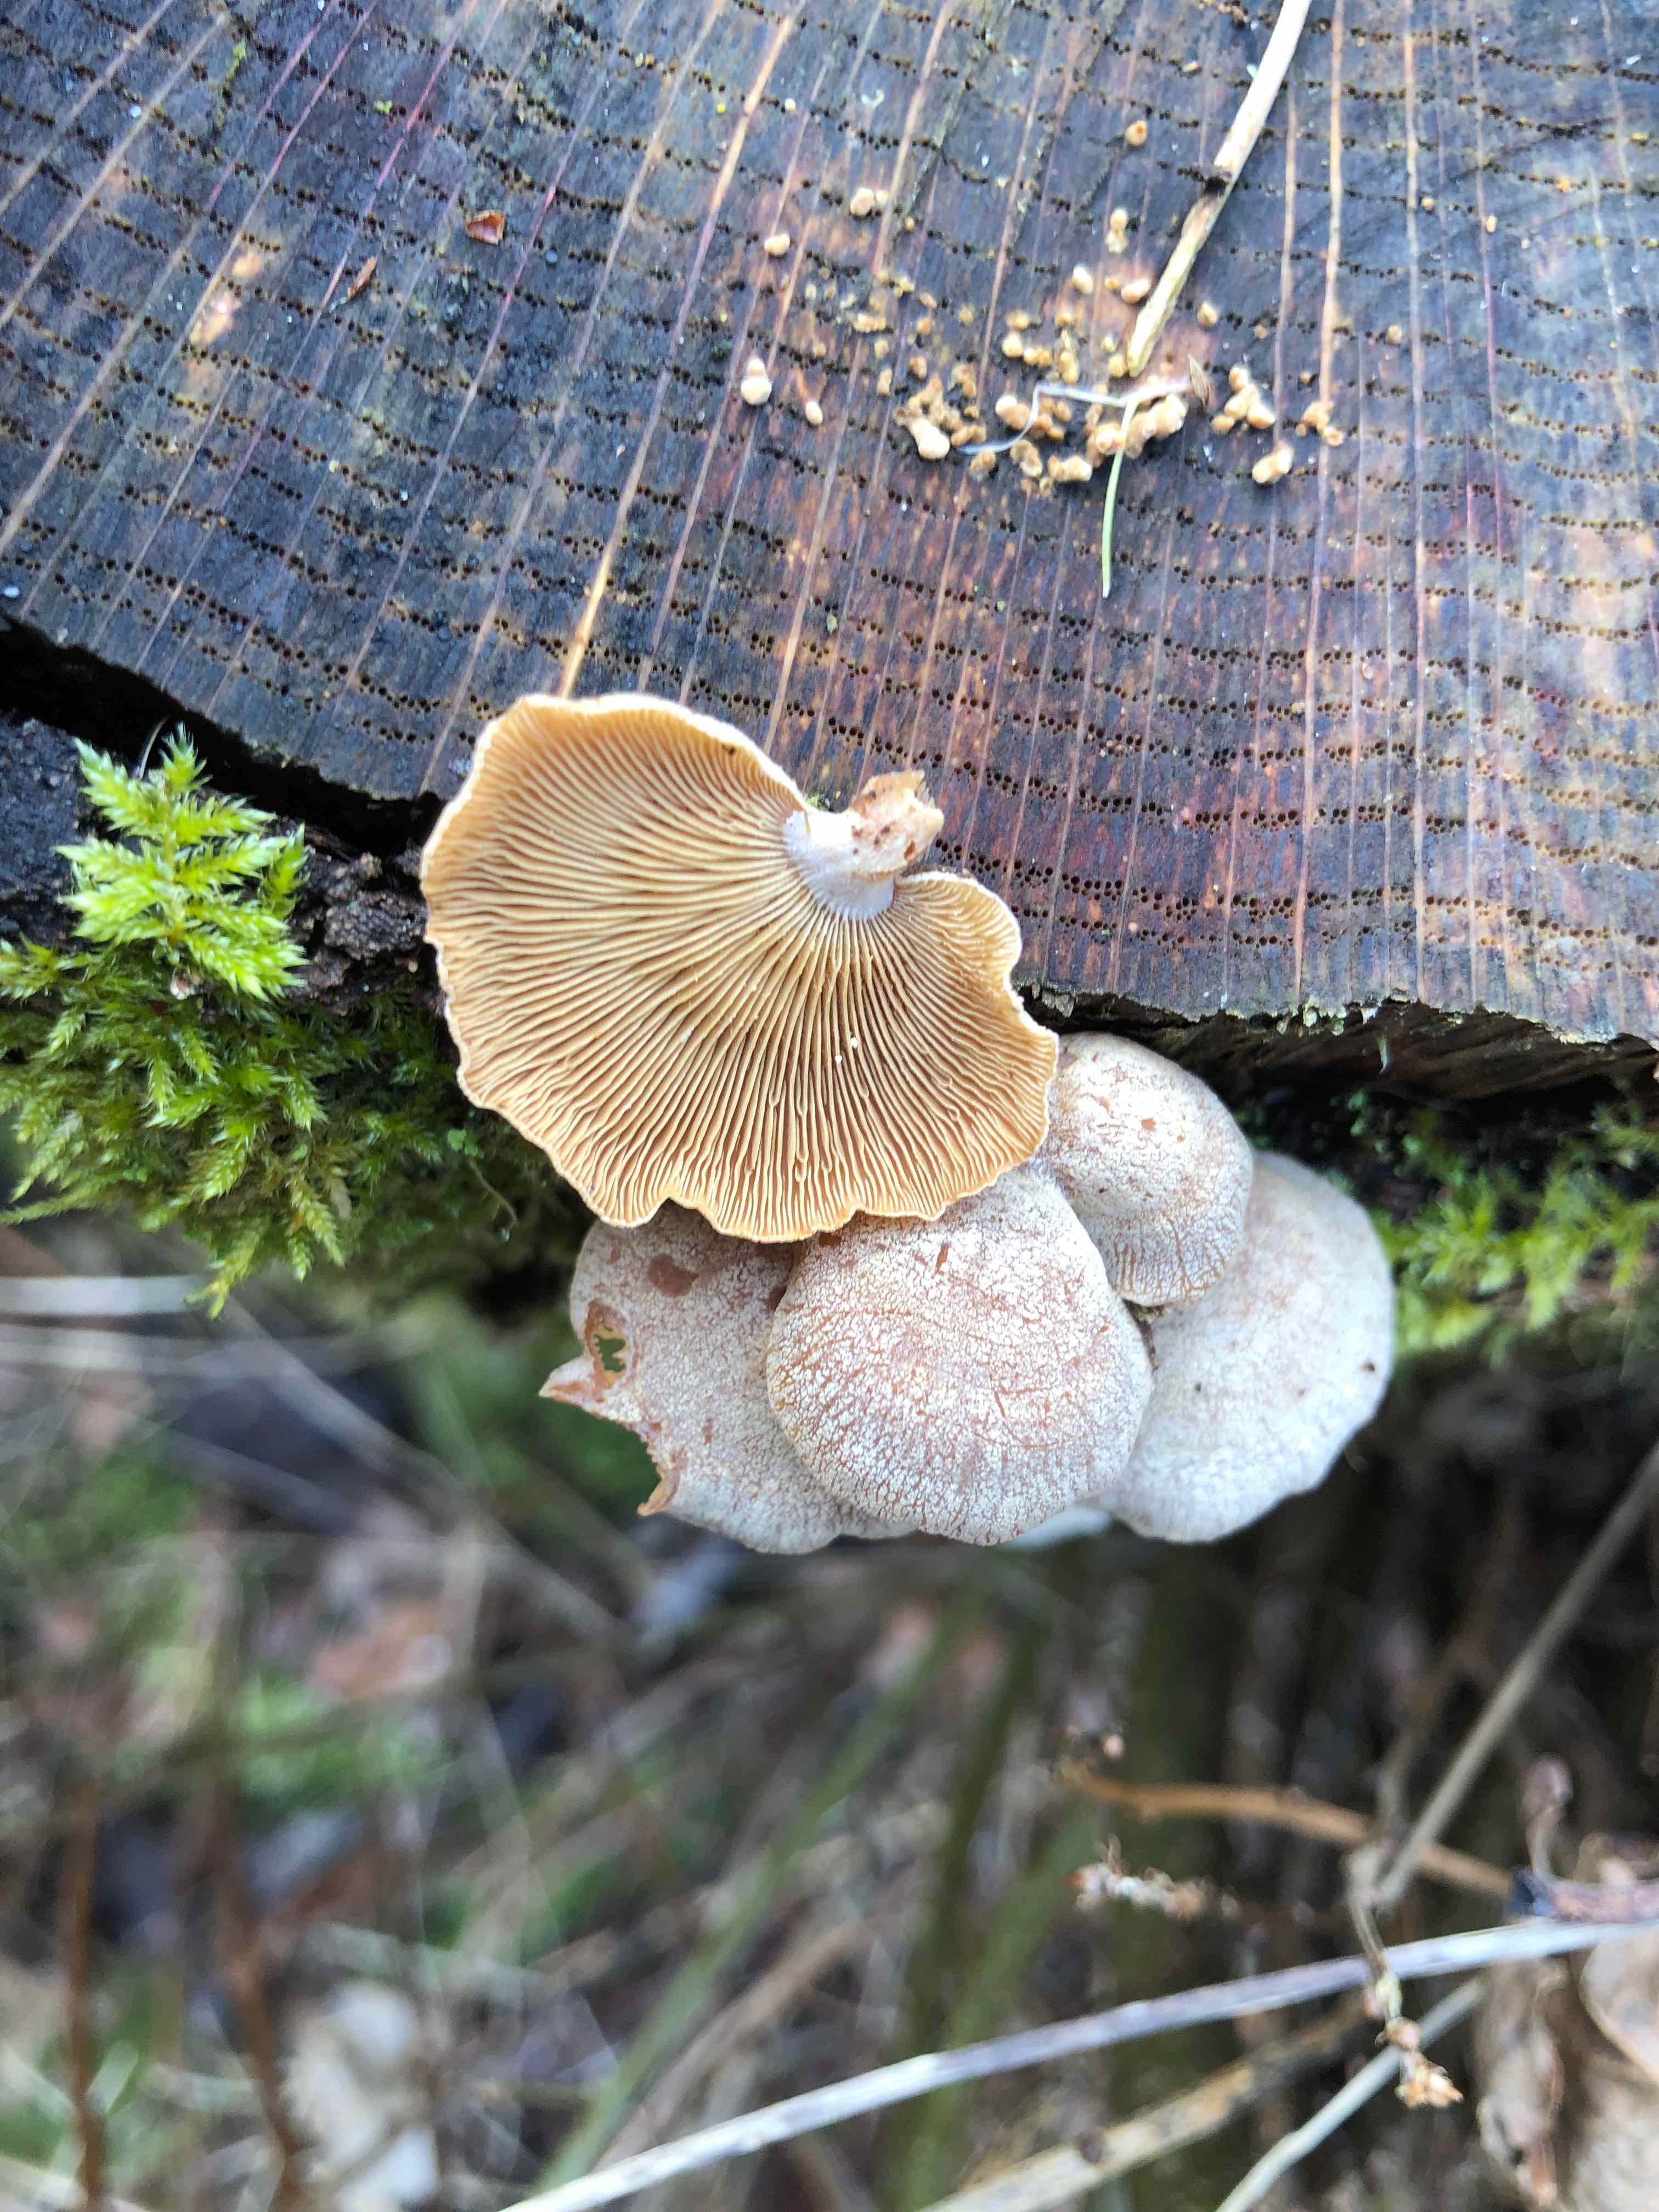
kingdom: Fungi
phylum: Basidiomycota
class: Agaricomycetes
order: Agaricales
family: Mycenaceae
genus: Panellus
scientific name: Panellus stipticus
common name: kliddet epaulethat
